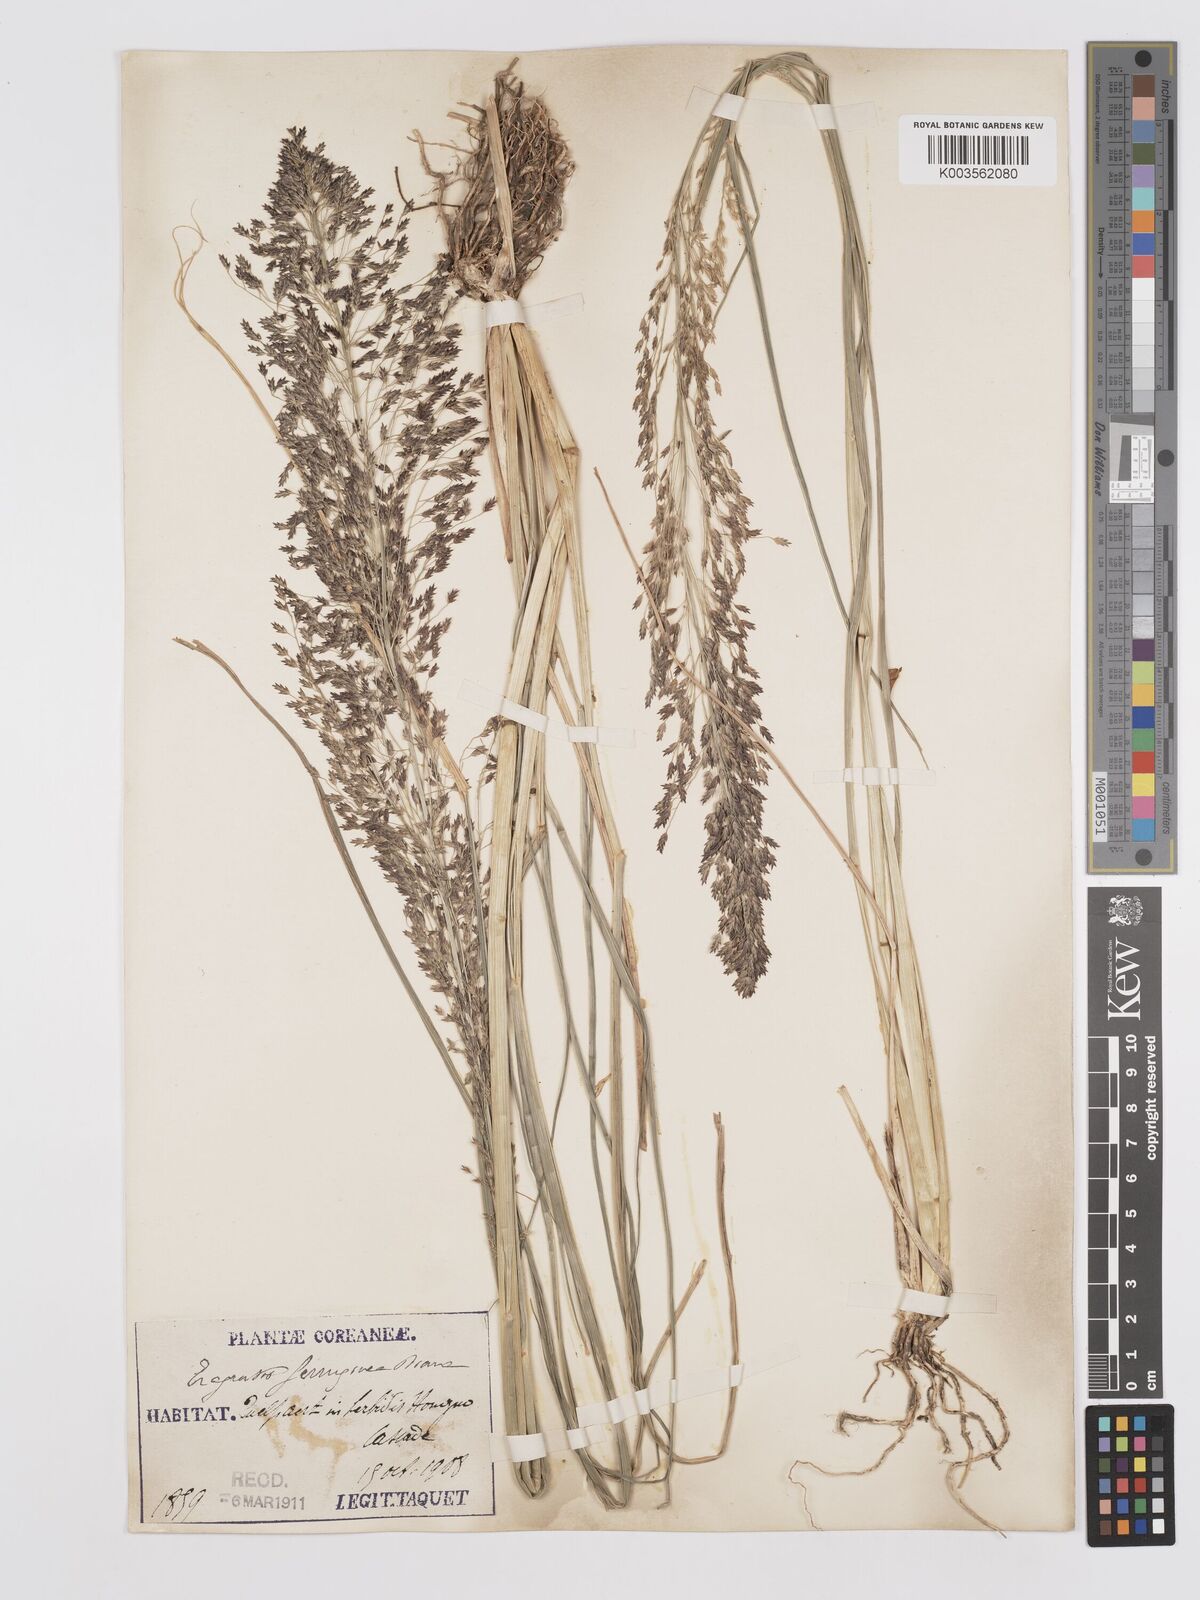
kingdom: Plantae
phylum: Tracheophyta
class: Liliopsida
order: Poales
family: Poaceae
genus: Eragrostis
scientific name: Eragrostis ferruginea
